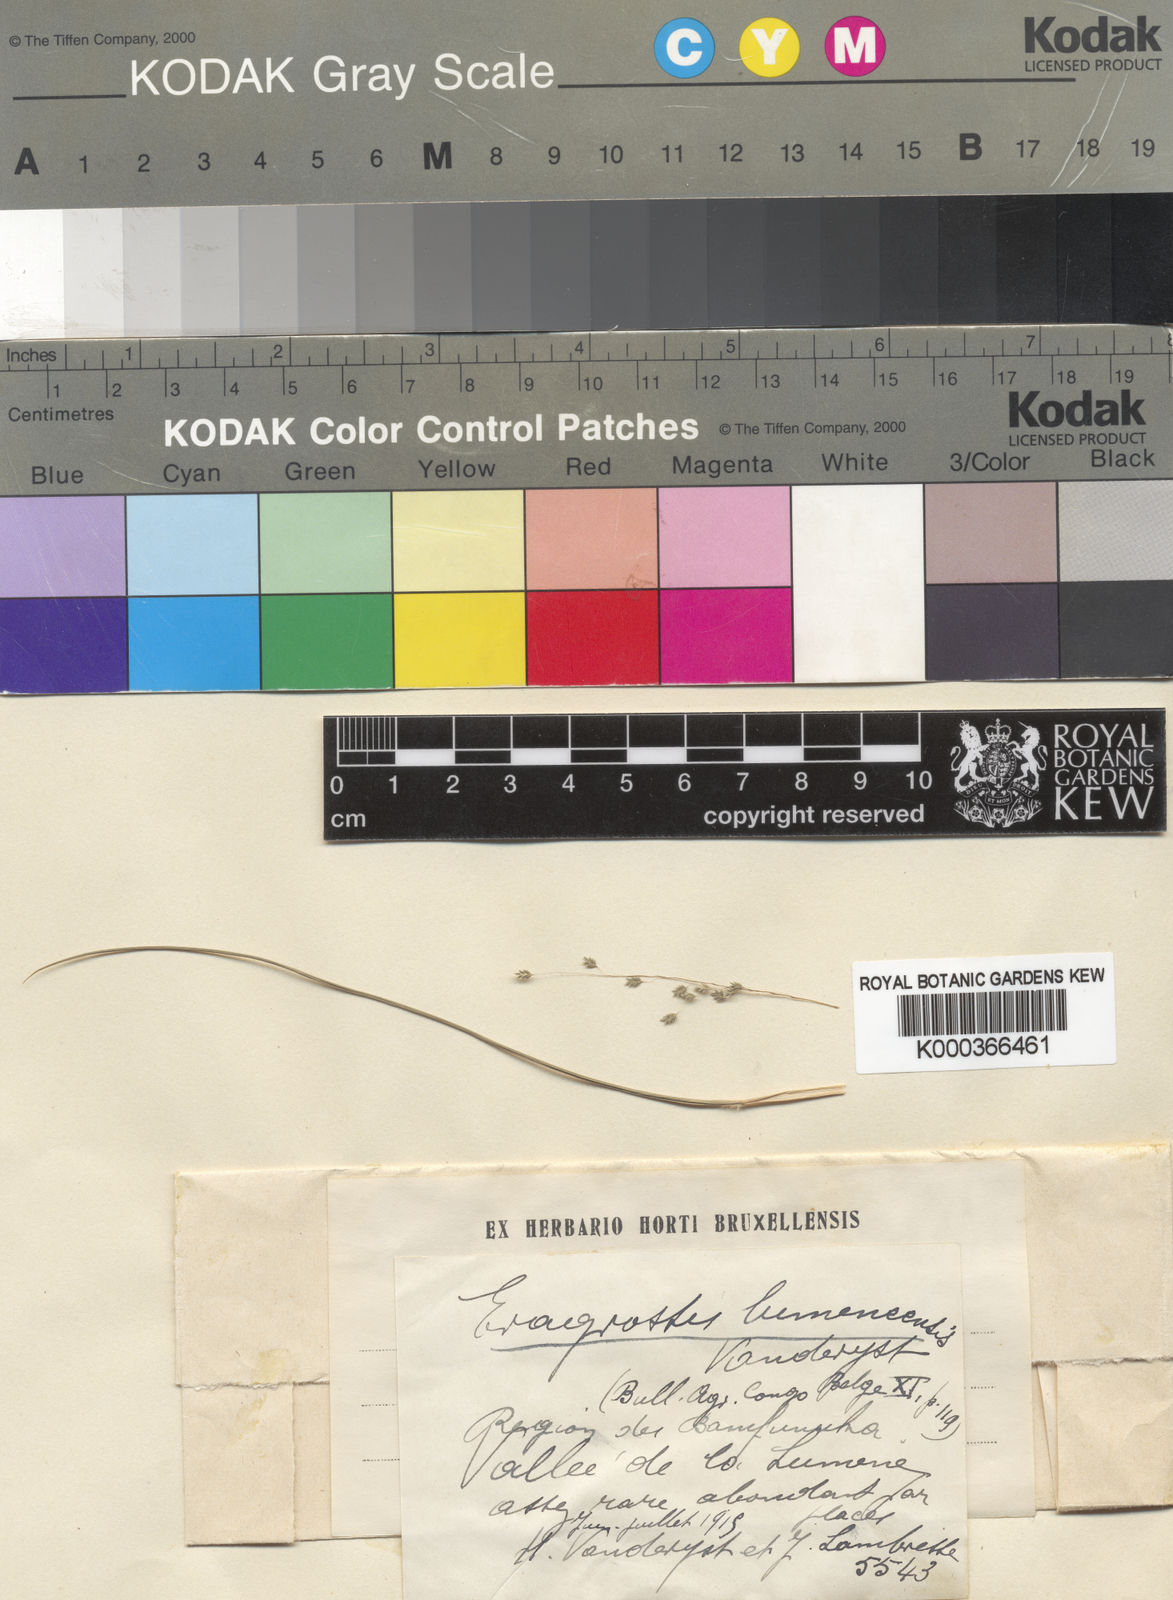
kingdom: Plantae
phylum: Tracheophyta
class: Liliopsida
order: Poales
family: Poaceae
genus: Eragrostis
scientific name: Eragrostis olivacea
